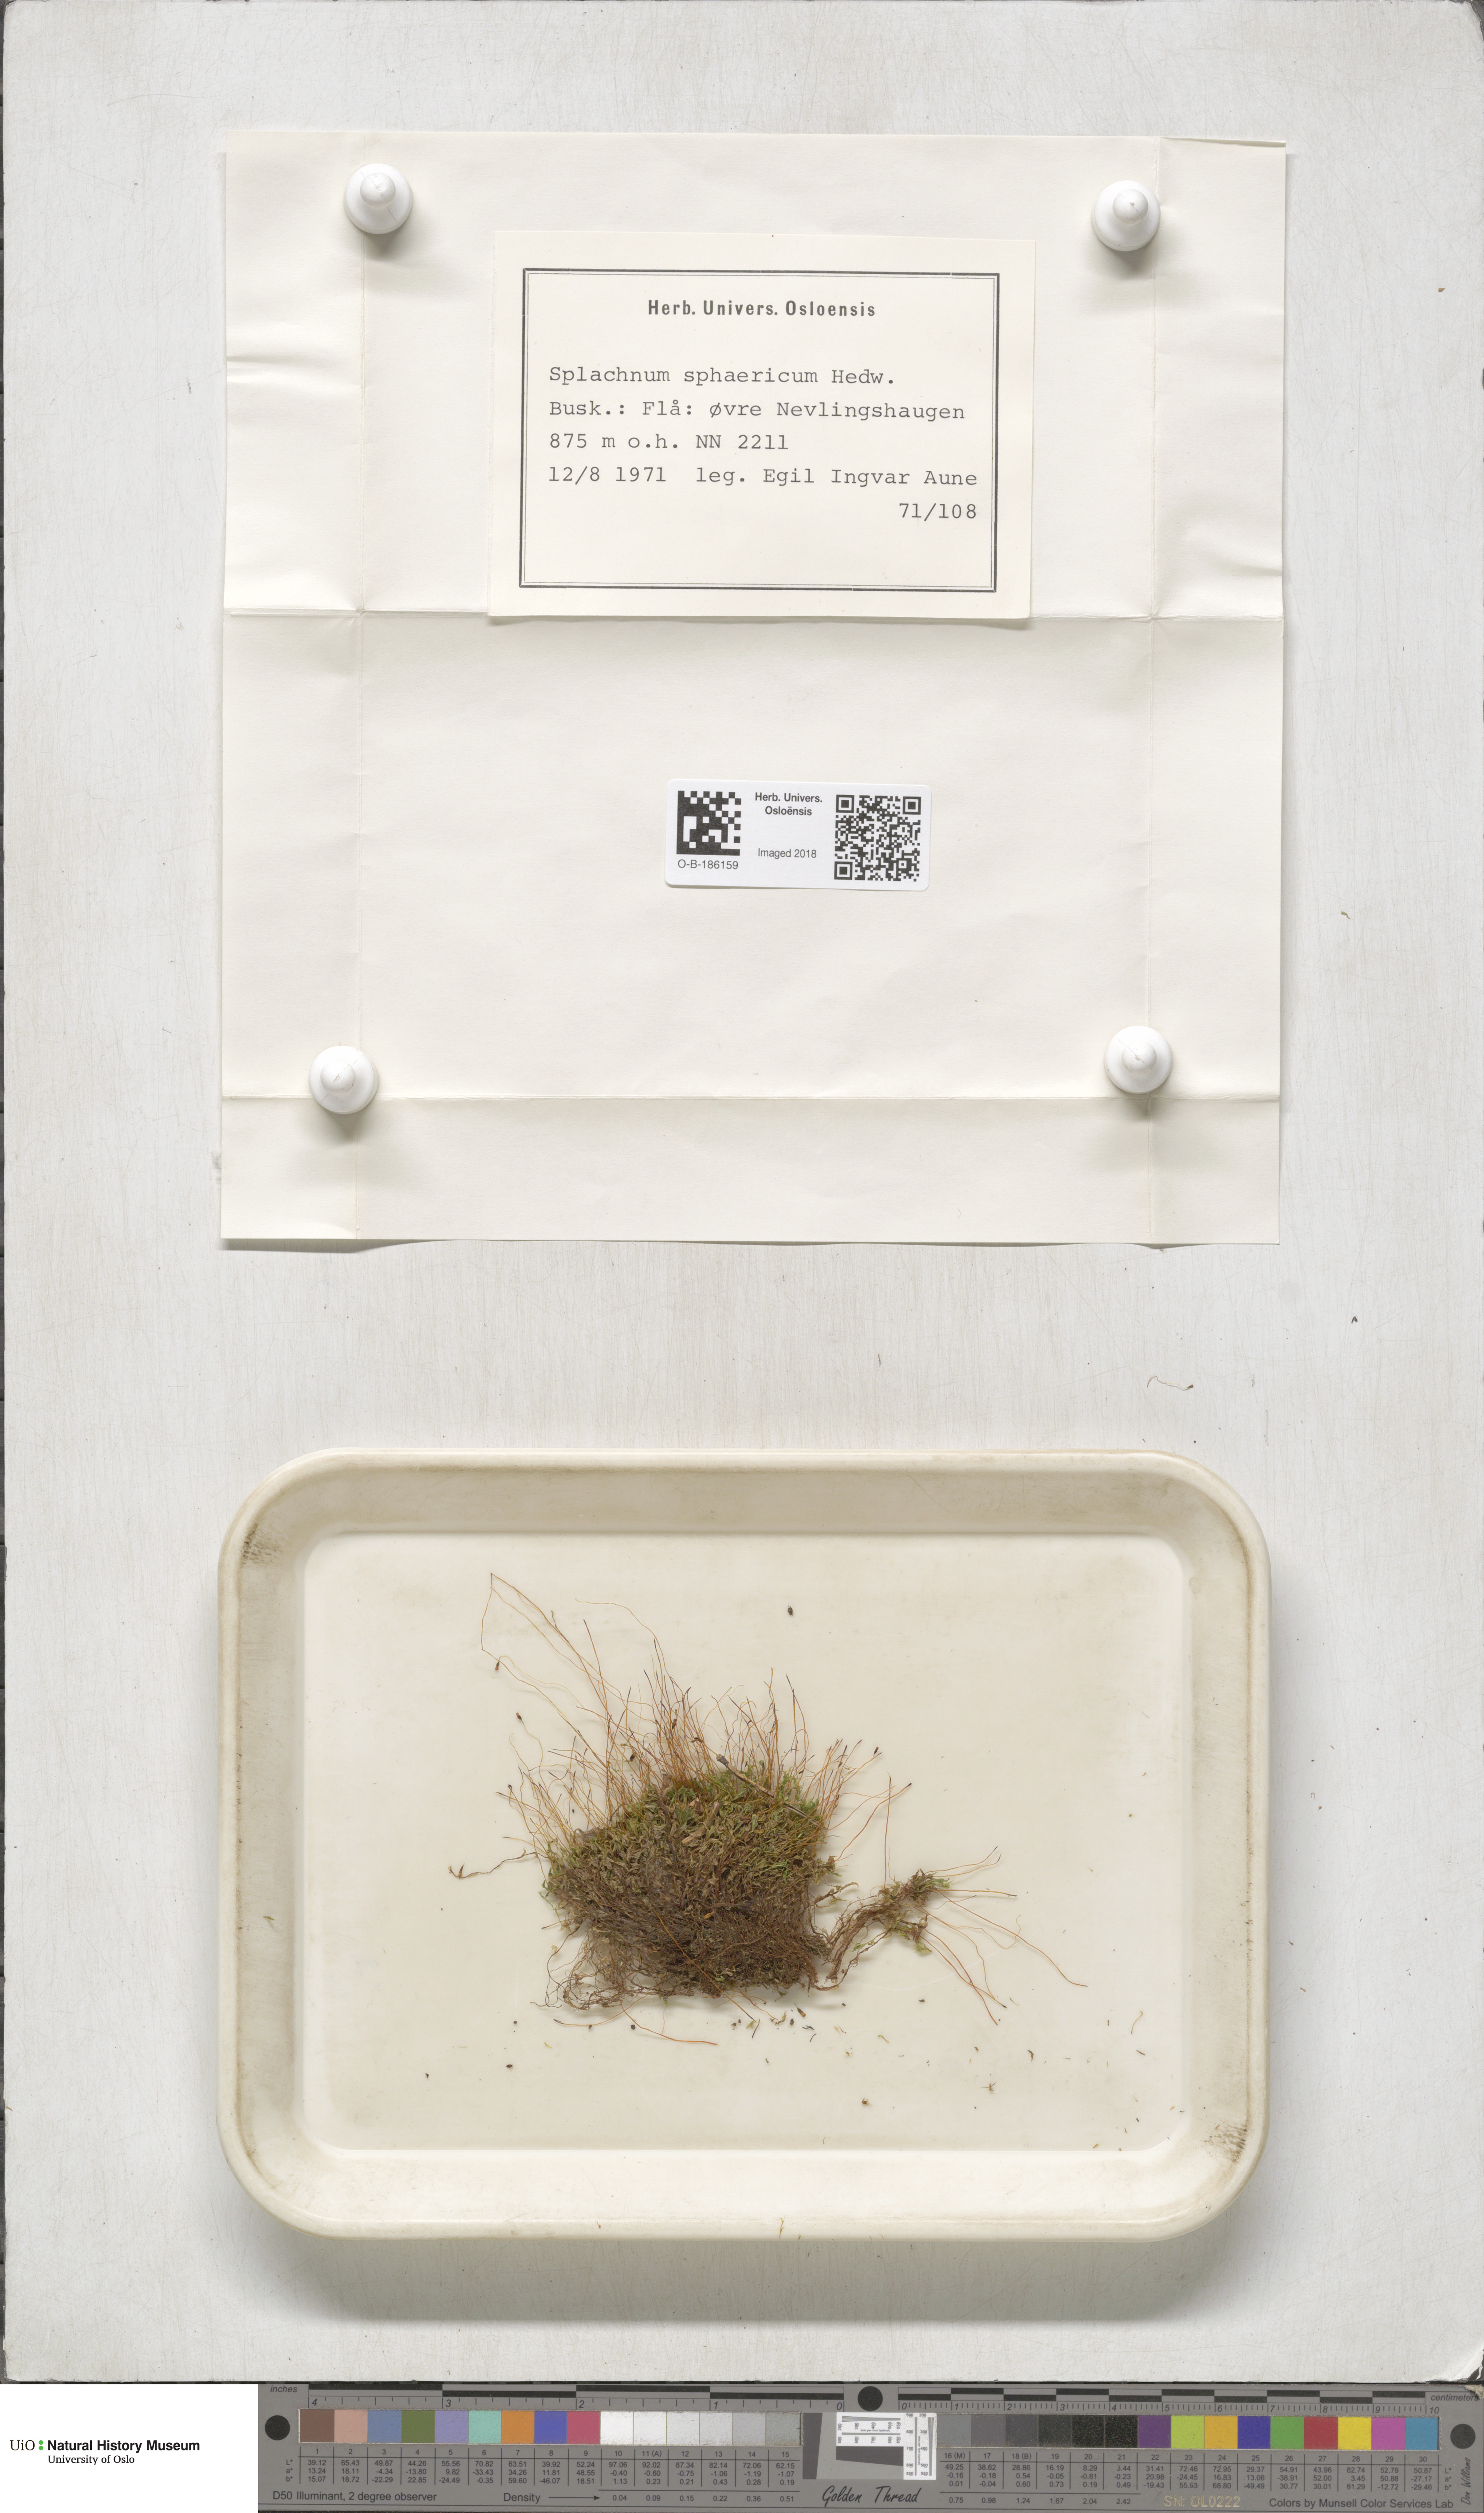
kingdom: Plantae
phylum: Bryophyta
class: Bryopsida
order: Splachnales
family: Splachnaceae
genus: Splachnum
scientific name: Splachnum sphaericum
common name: Round-fruited dung moss
